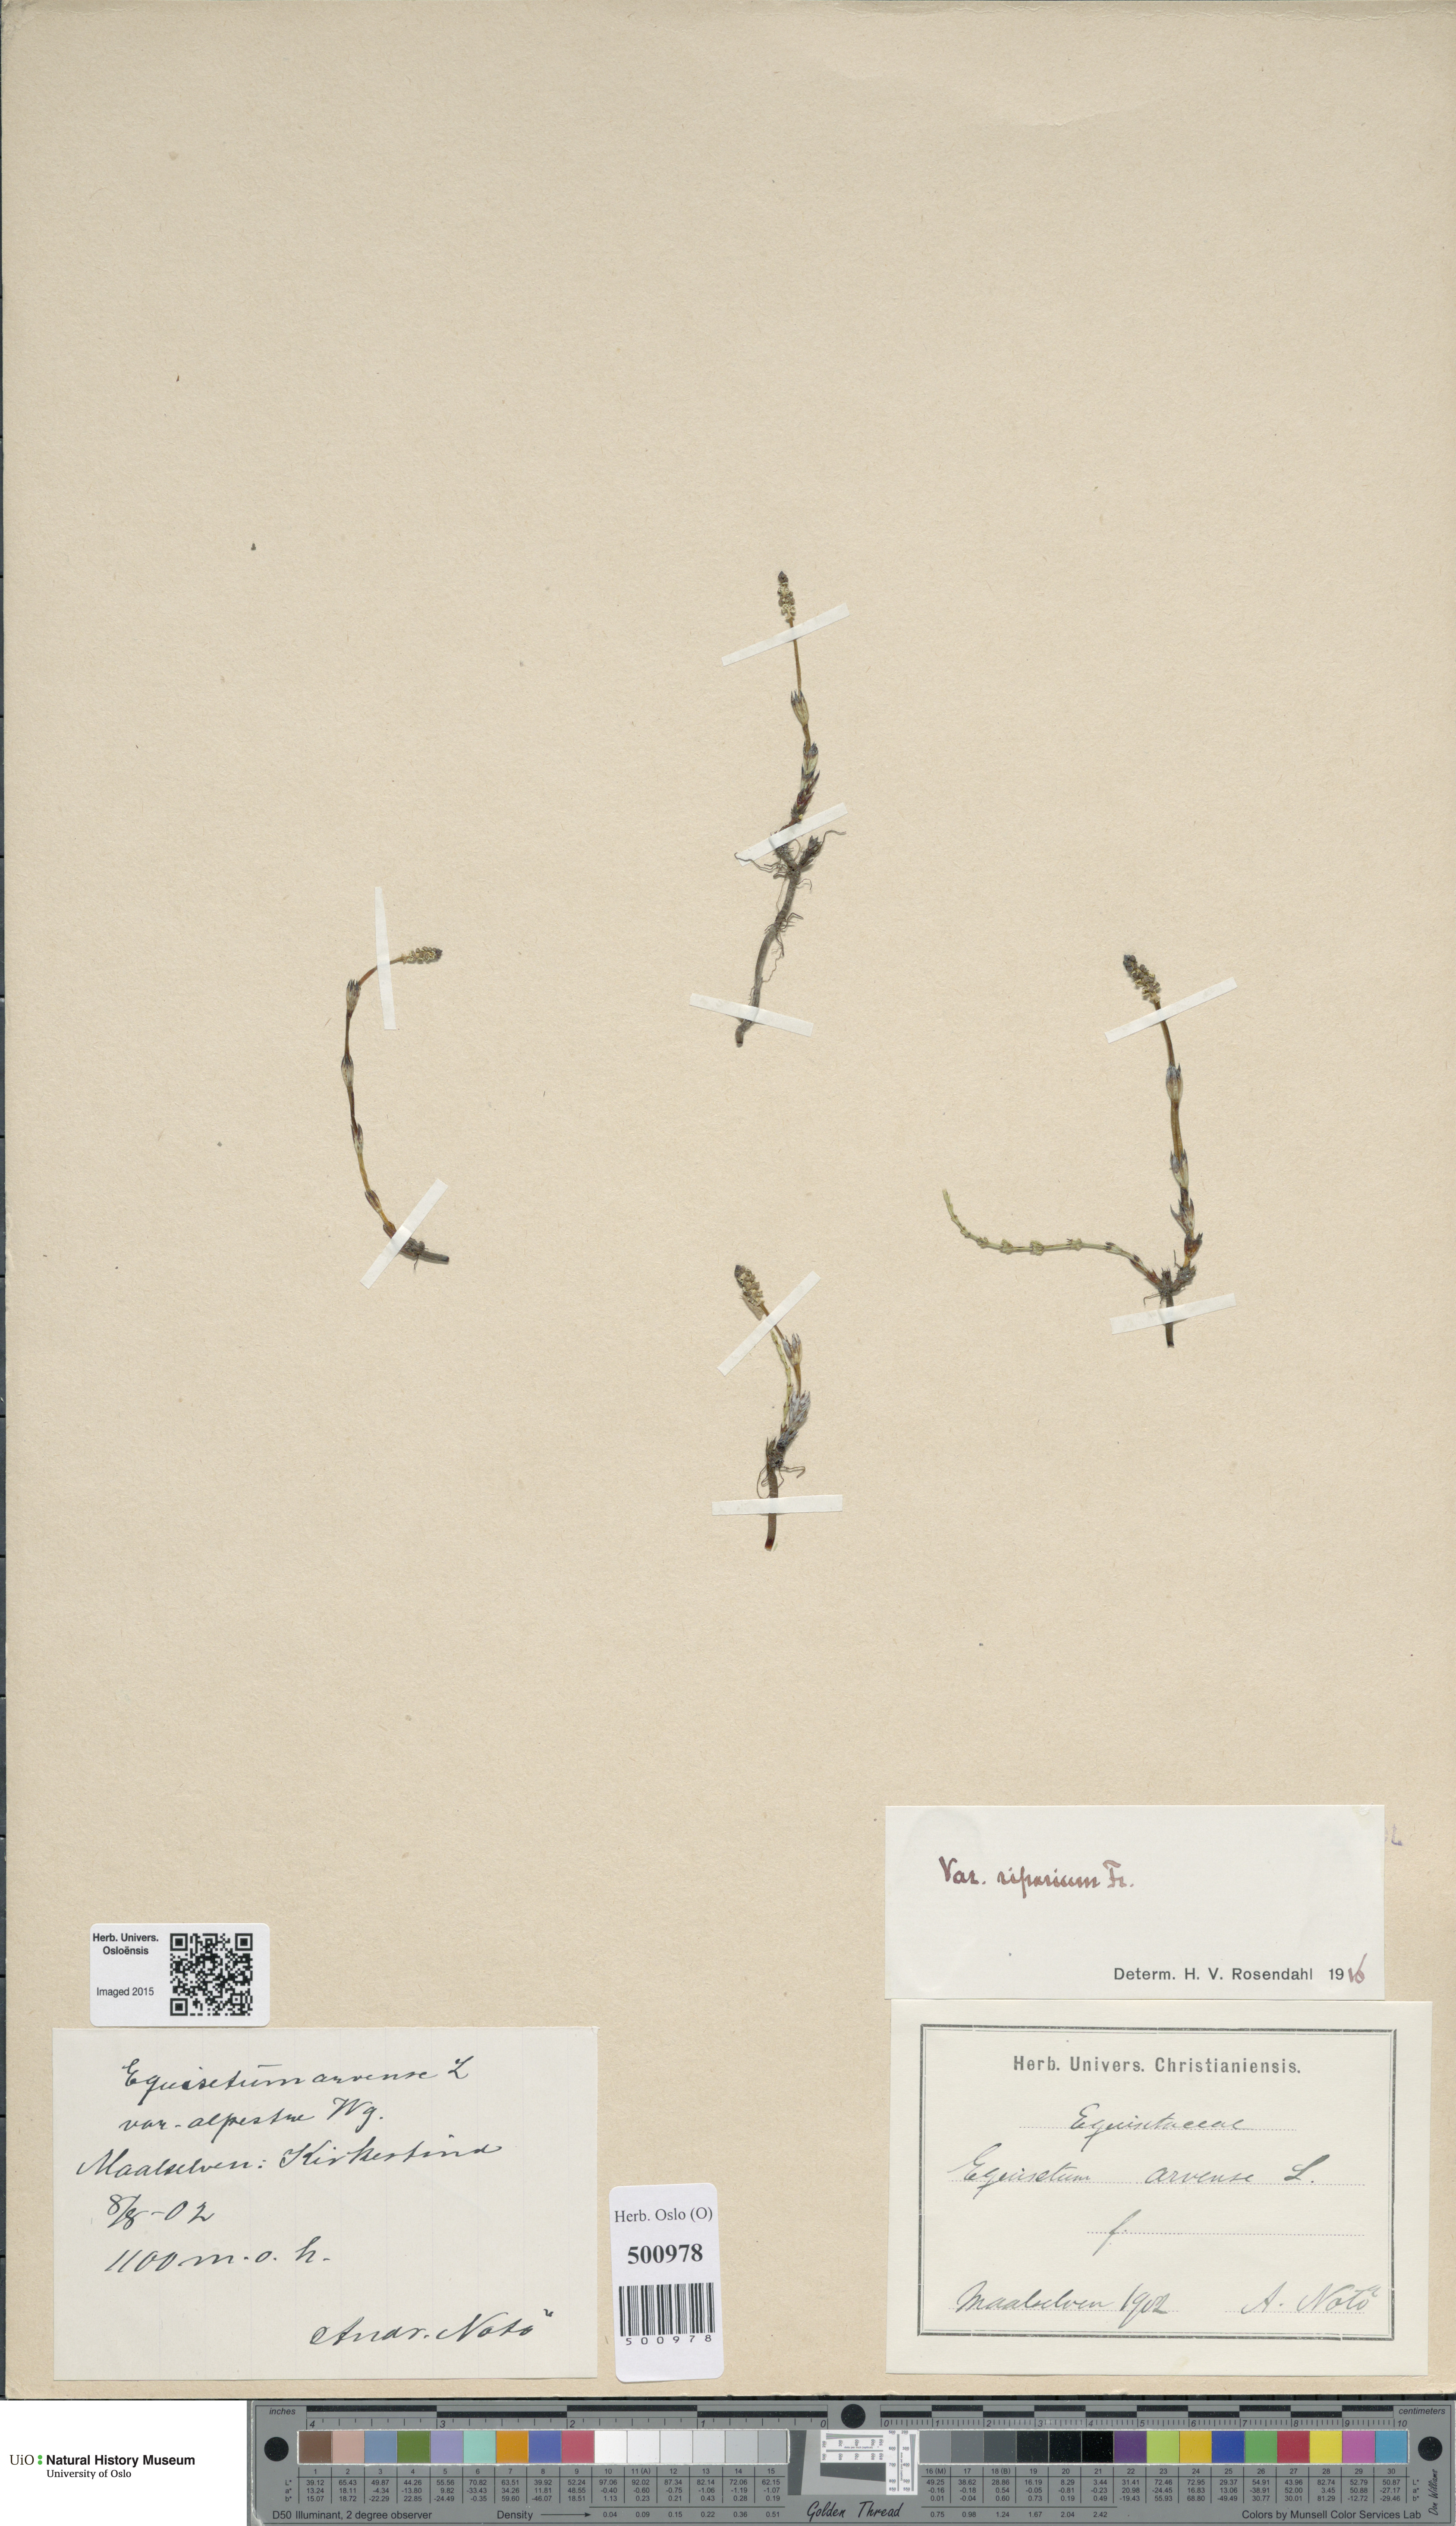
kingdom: Plantae
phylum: Tracheophyta
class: Polypodiopsida
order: Equisetales
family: Equisetaceae
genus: Equisetum
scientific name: Equisetum arvense
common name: Field horsetail
